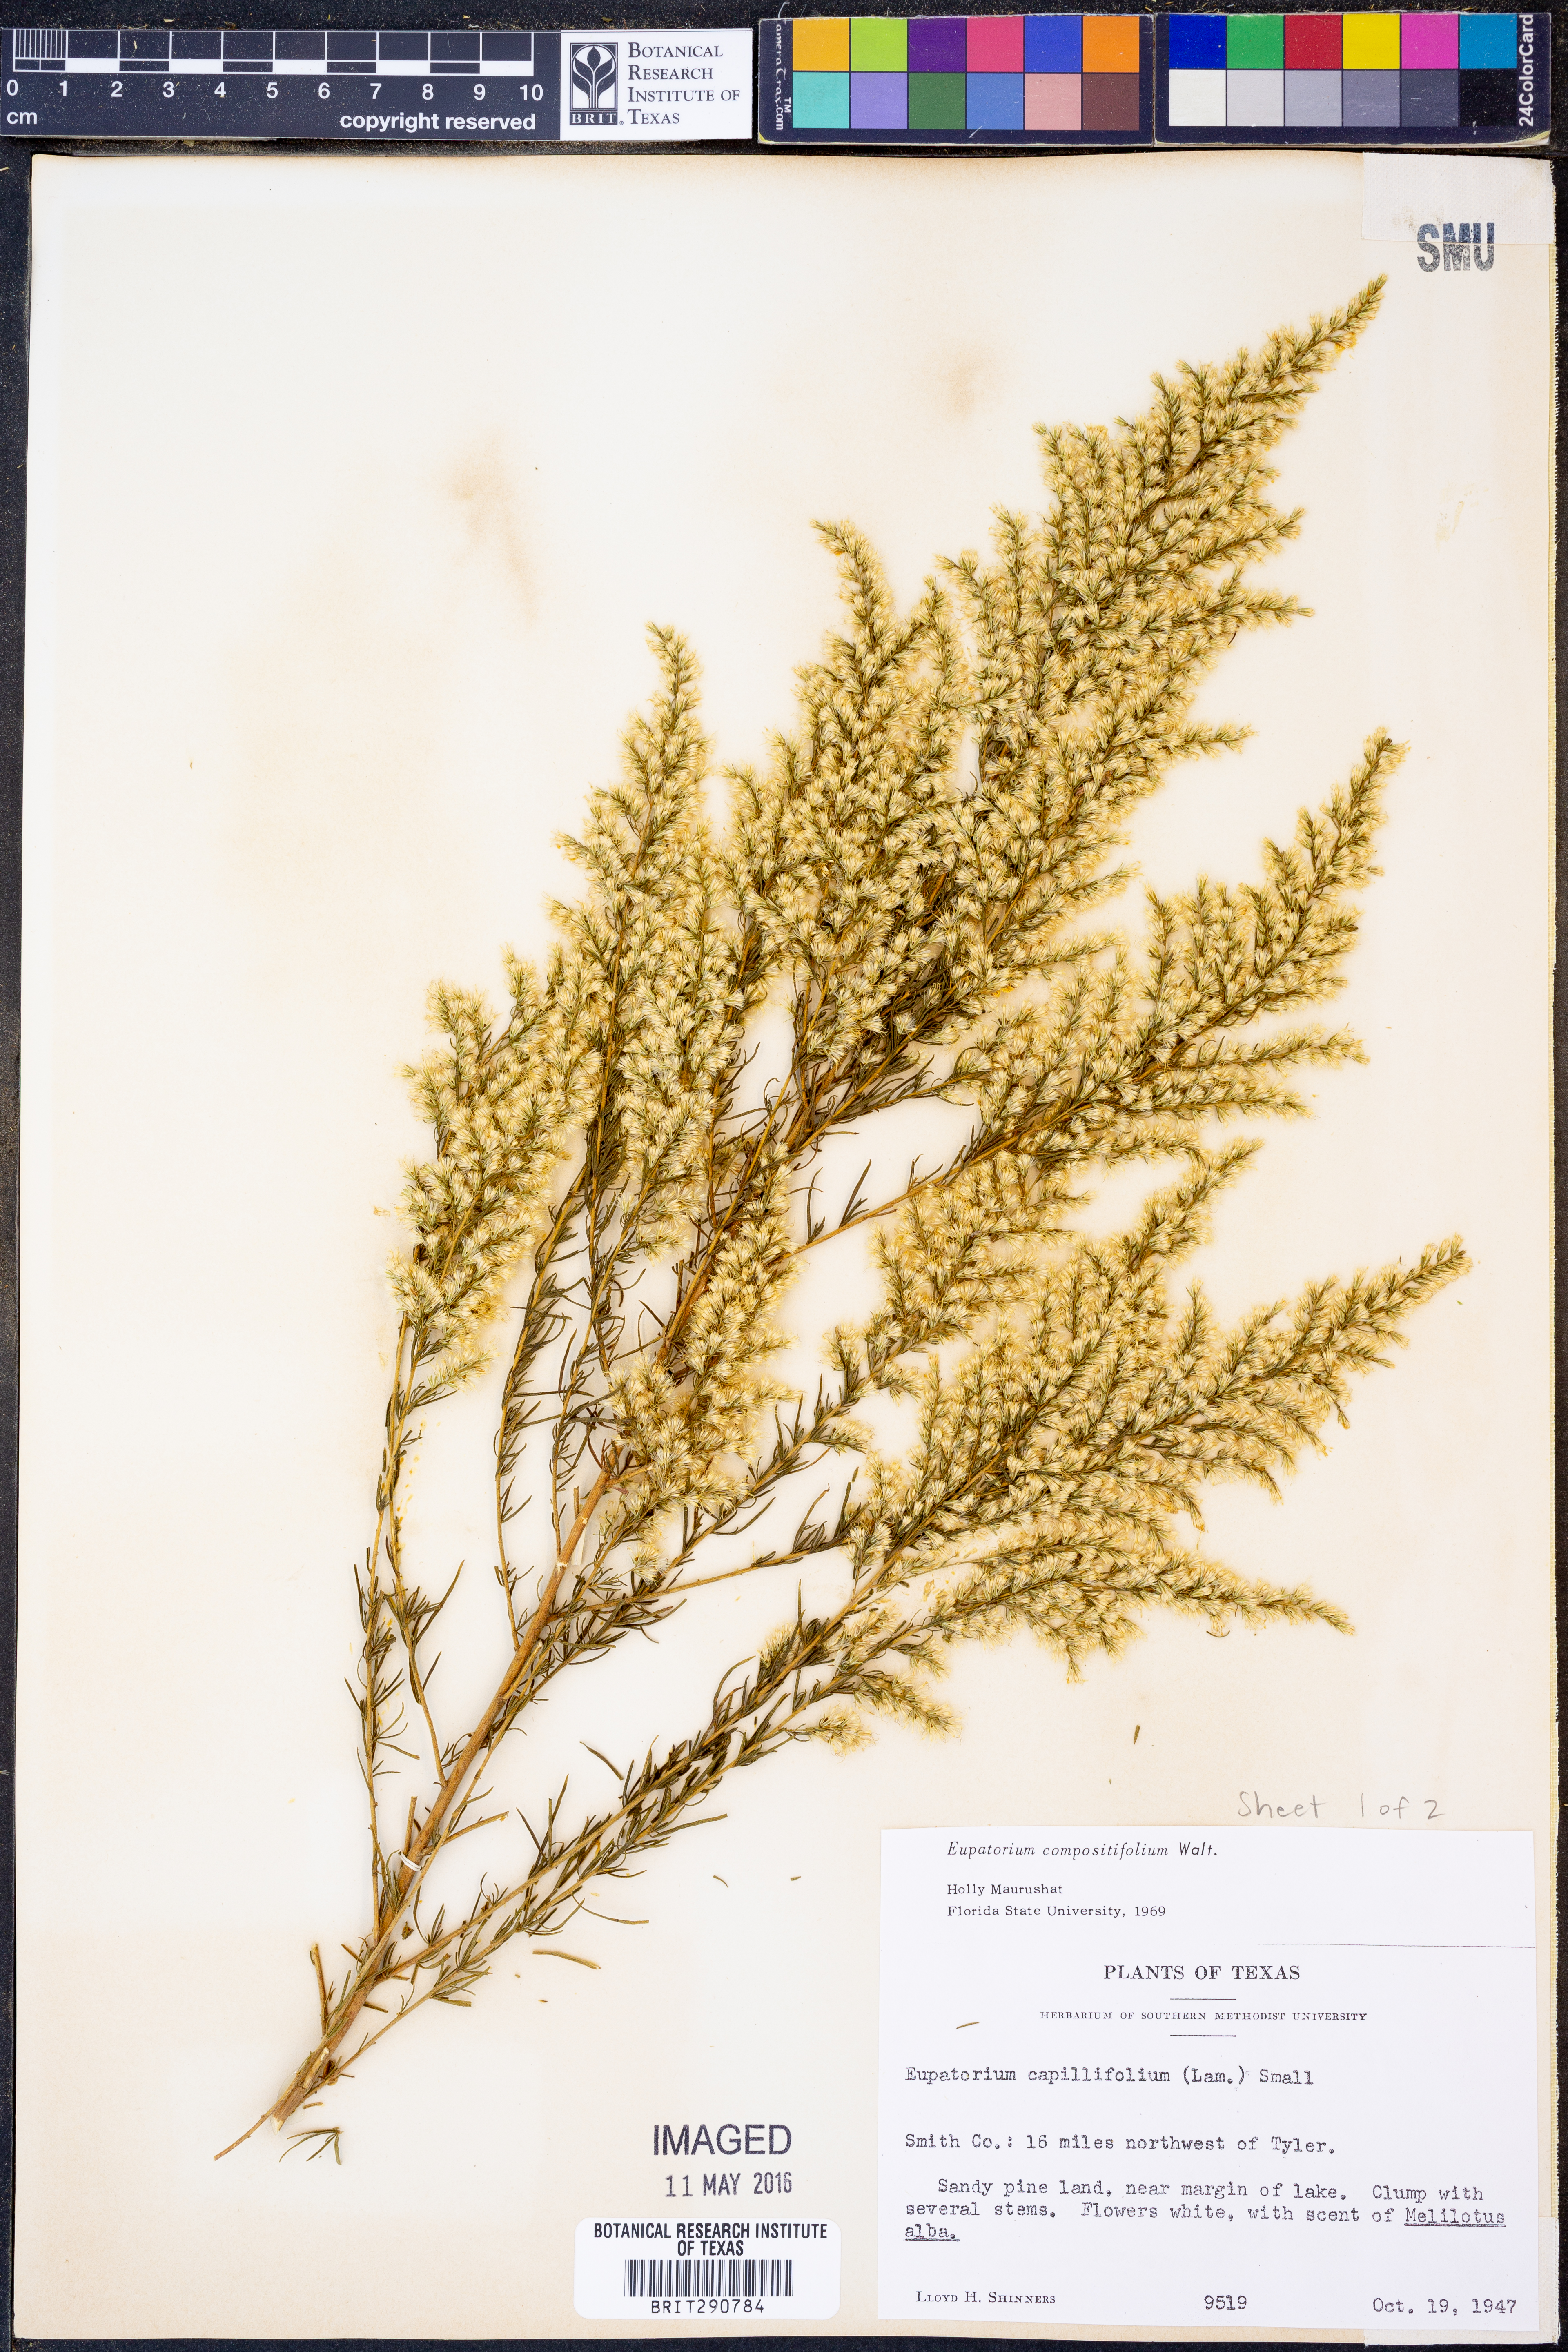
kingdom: Plantae
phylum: Tracheophyta
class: Magnoliopsida
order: Asterales
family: Asteraceae
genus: Eupatorium
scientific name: Eupatorium compositifolium
